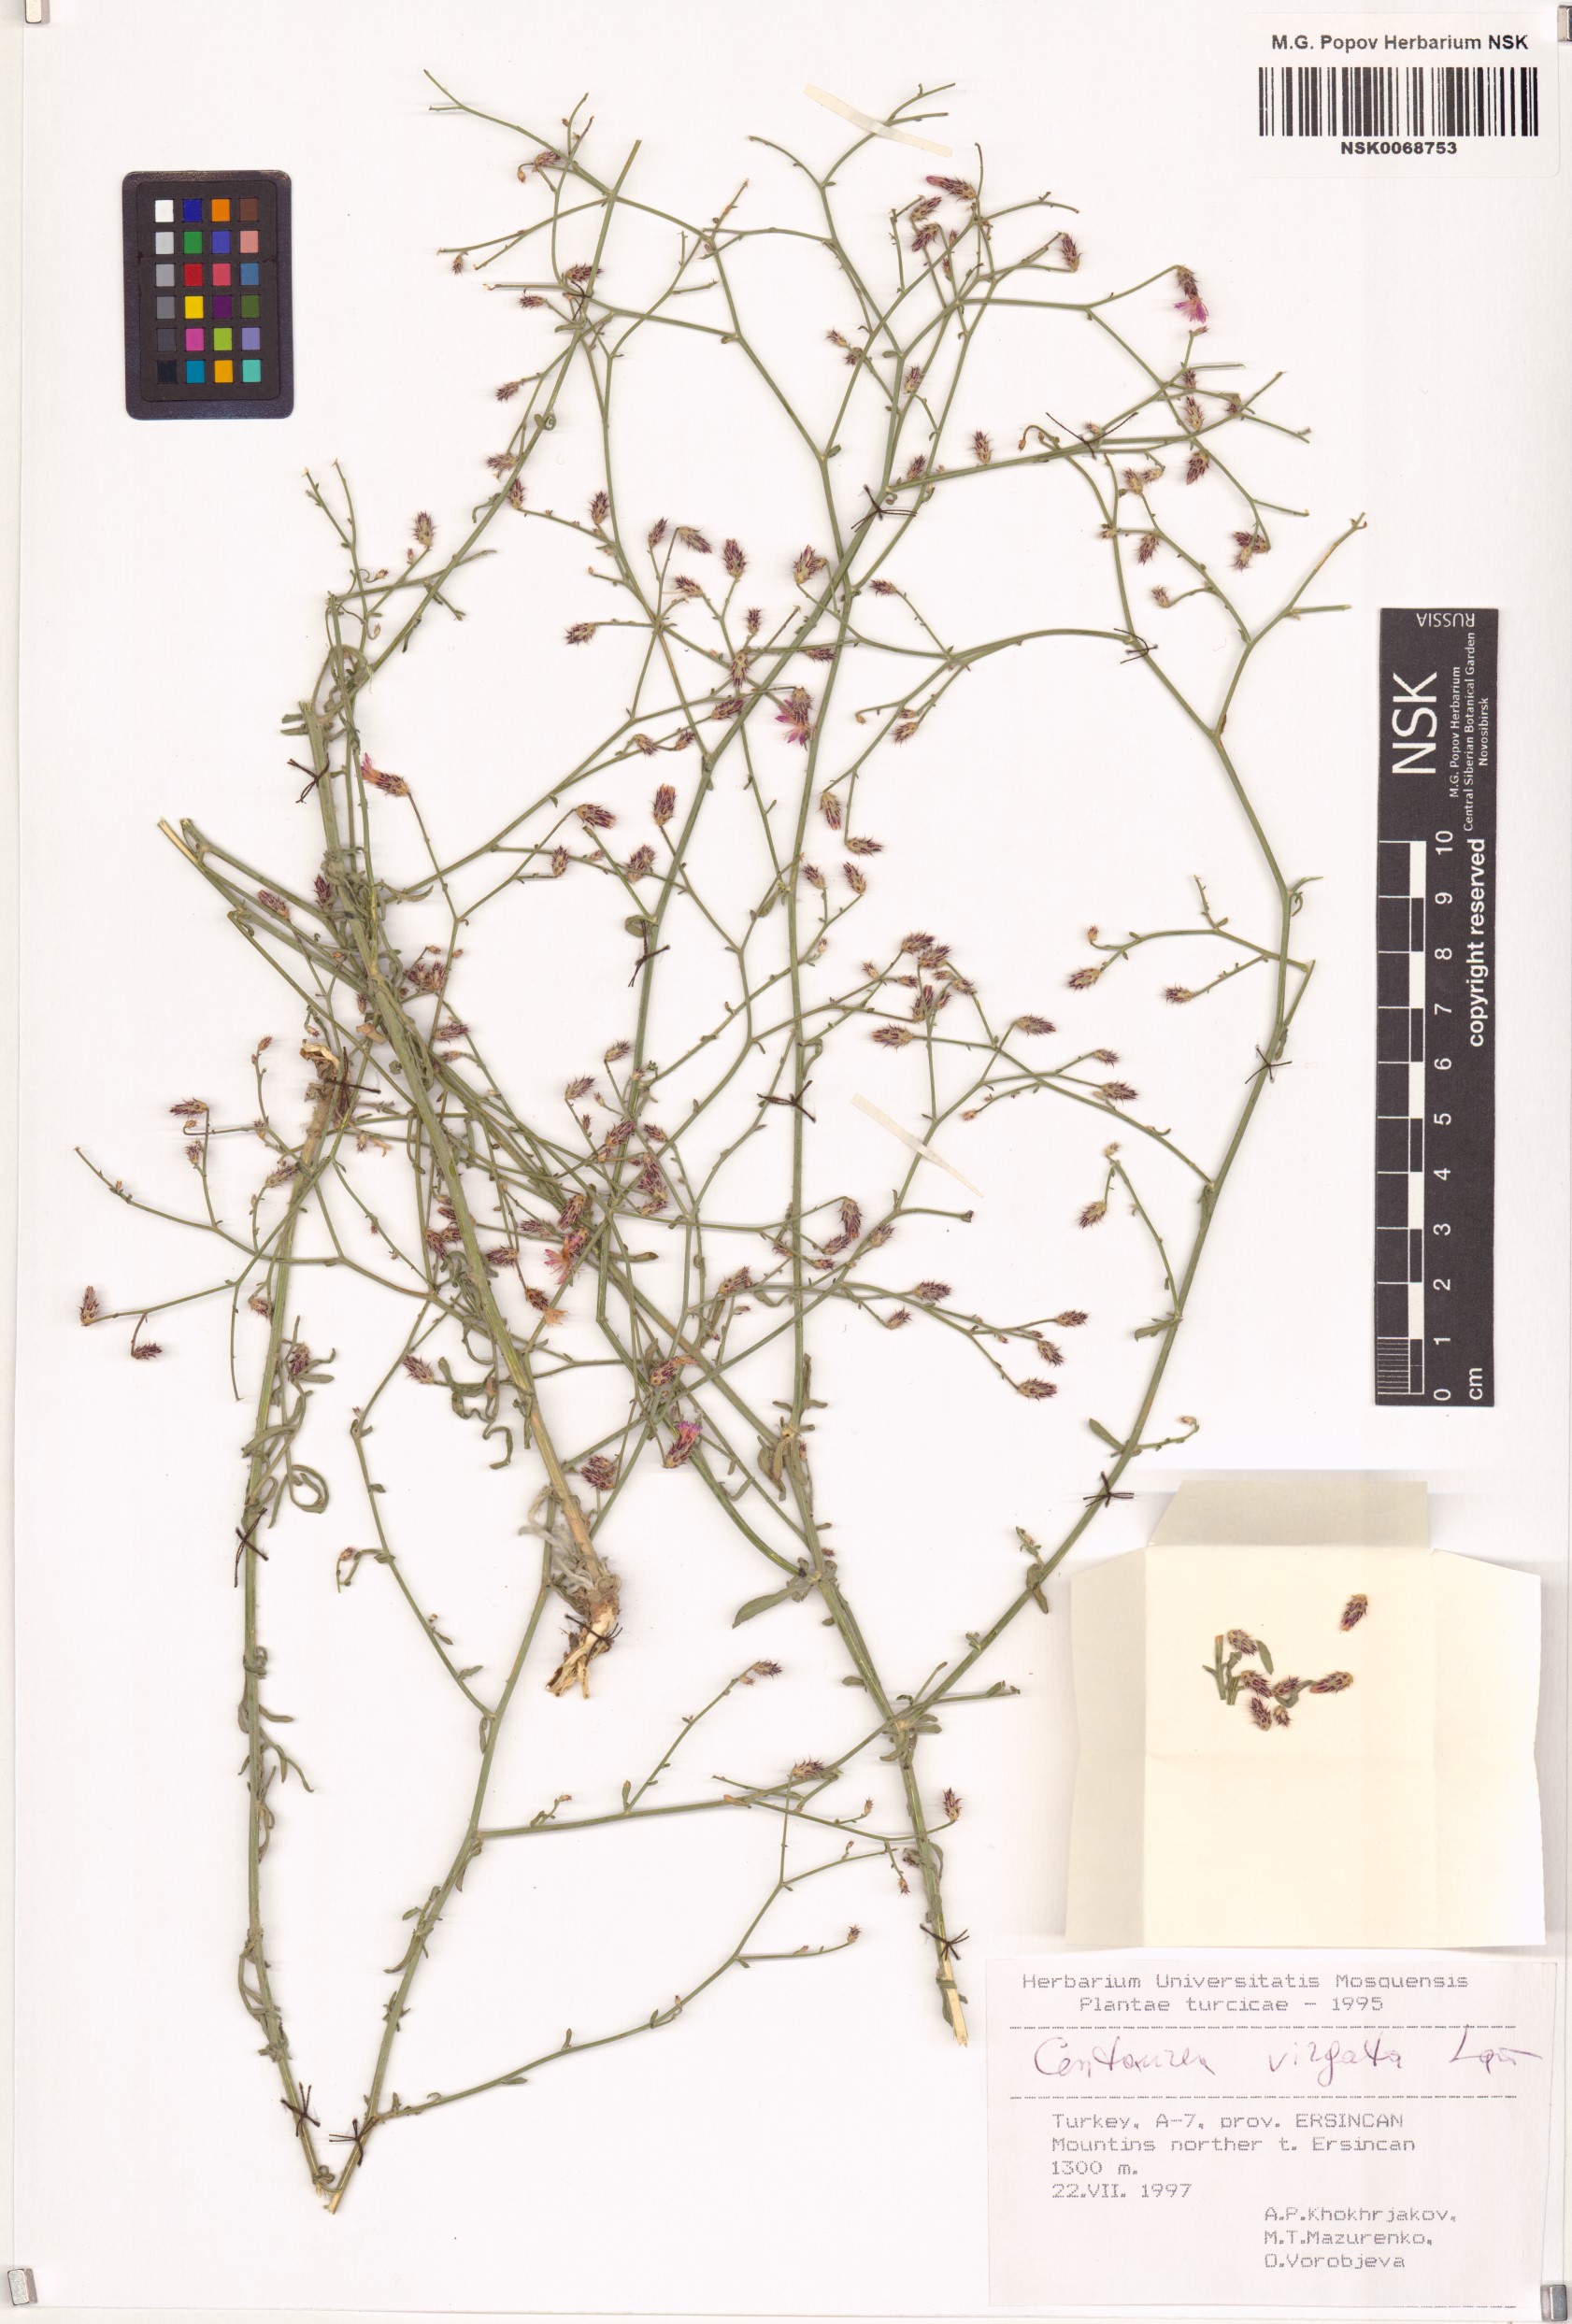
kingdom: Plantae
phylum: Tracheophyta
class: Magnoliopsida
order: Asterales
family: Asteraceae
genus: Centaurea
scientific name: Centaurea virgata
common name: Squarrose knapweed
